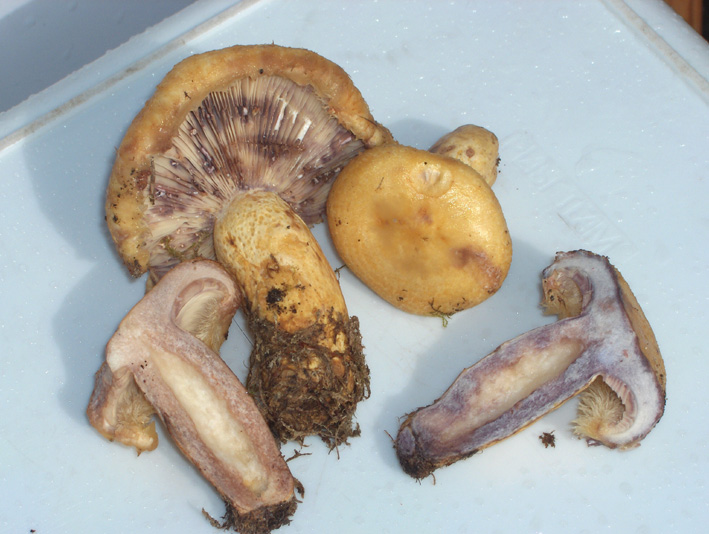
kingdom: Fungi
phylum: Basidiomycota
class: Agaricomycetes
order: Russulales
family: Russulaceae
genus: Lactarius
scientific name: Lactarius repraesentaneus
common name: prægtig mælkehat
